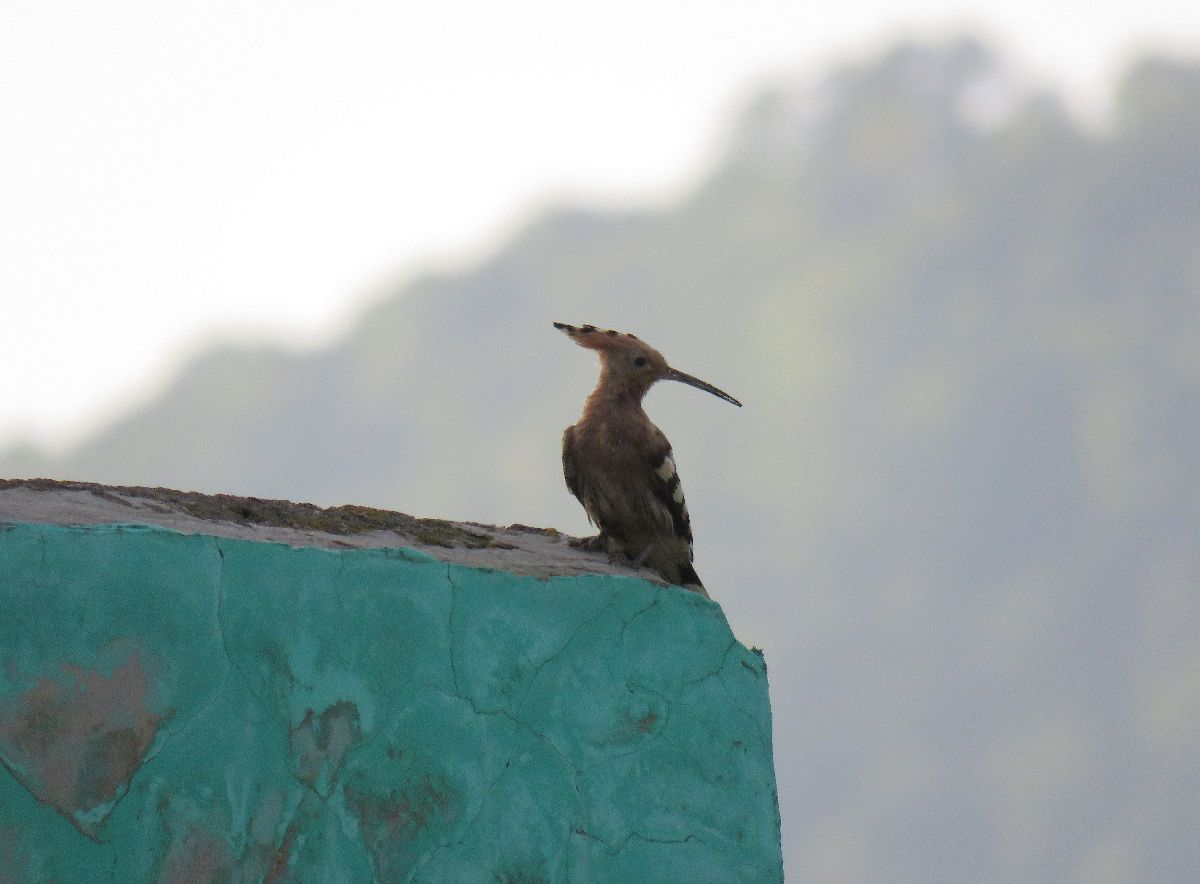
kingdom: Animalia
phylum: Chordata
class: Aves
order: Bucerotiformes
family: Upupidae
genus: Upupa
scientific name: Upupa epops
